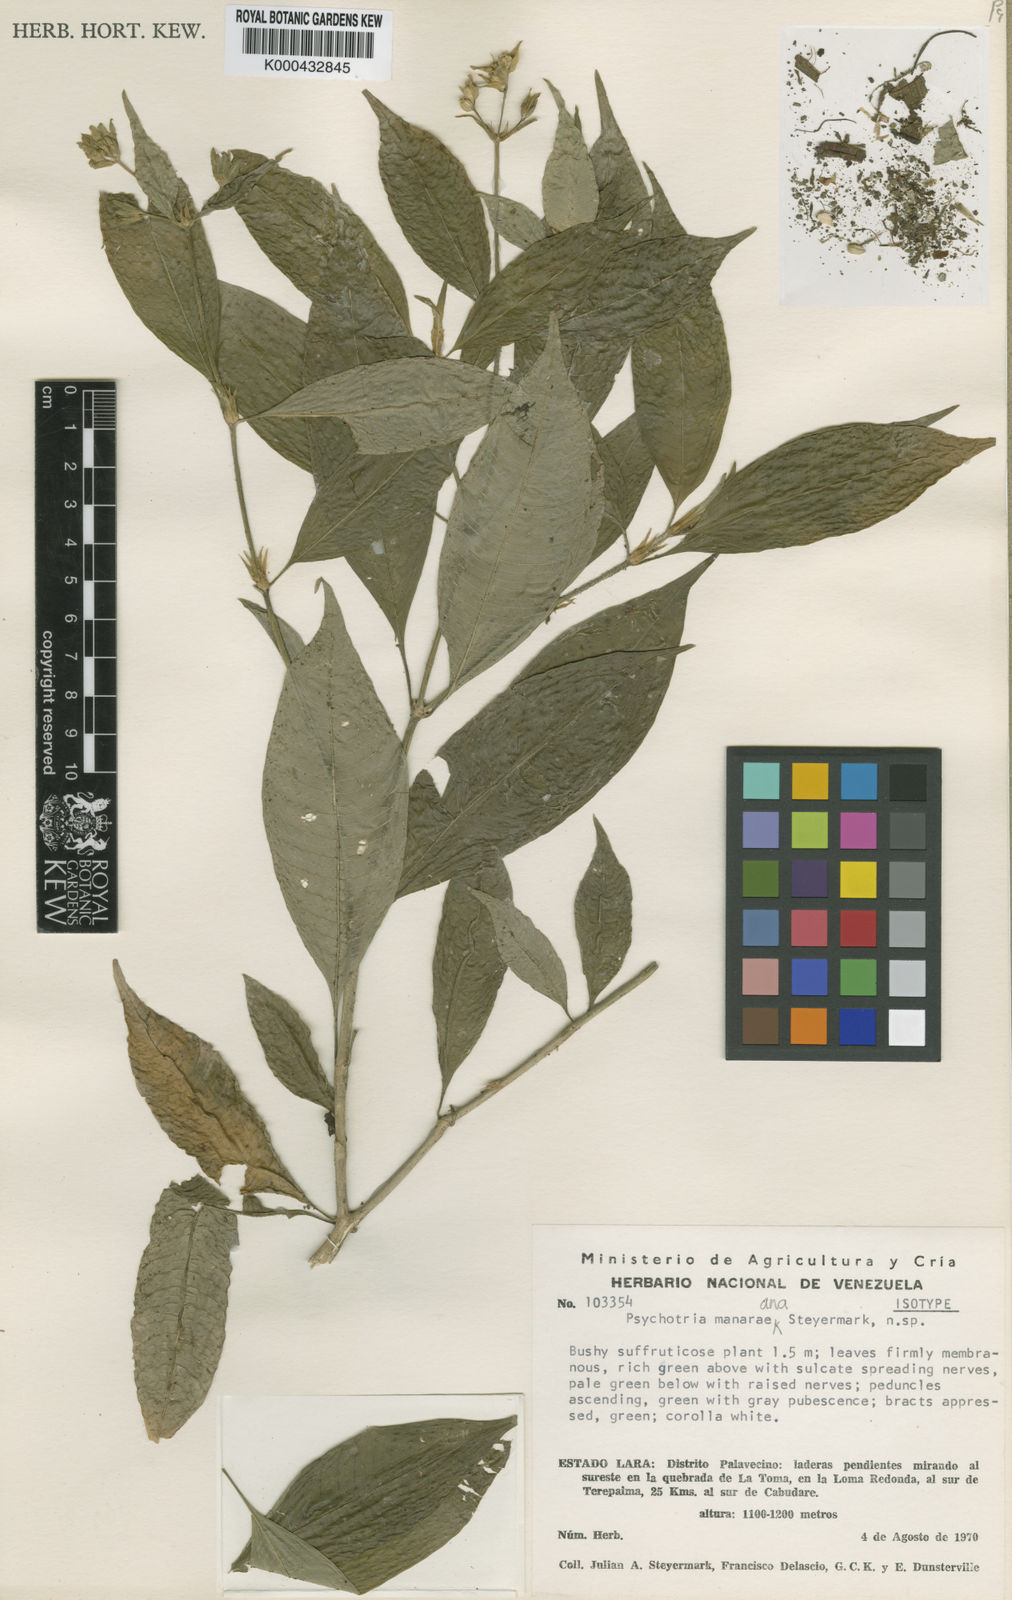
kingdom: Plantae
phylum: Tracheophyta
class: Magnoliopsida
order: Gentianales
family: Rubiaceae
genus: Palicourea
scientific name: Palicourea manaraeana
